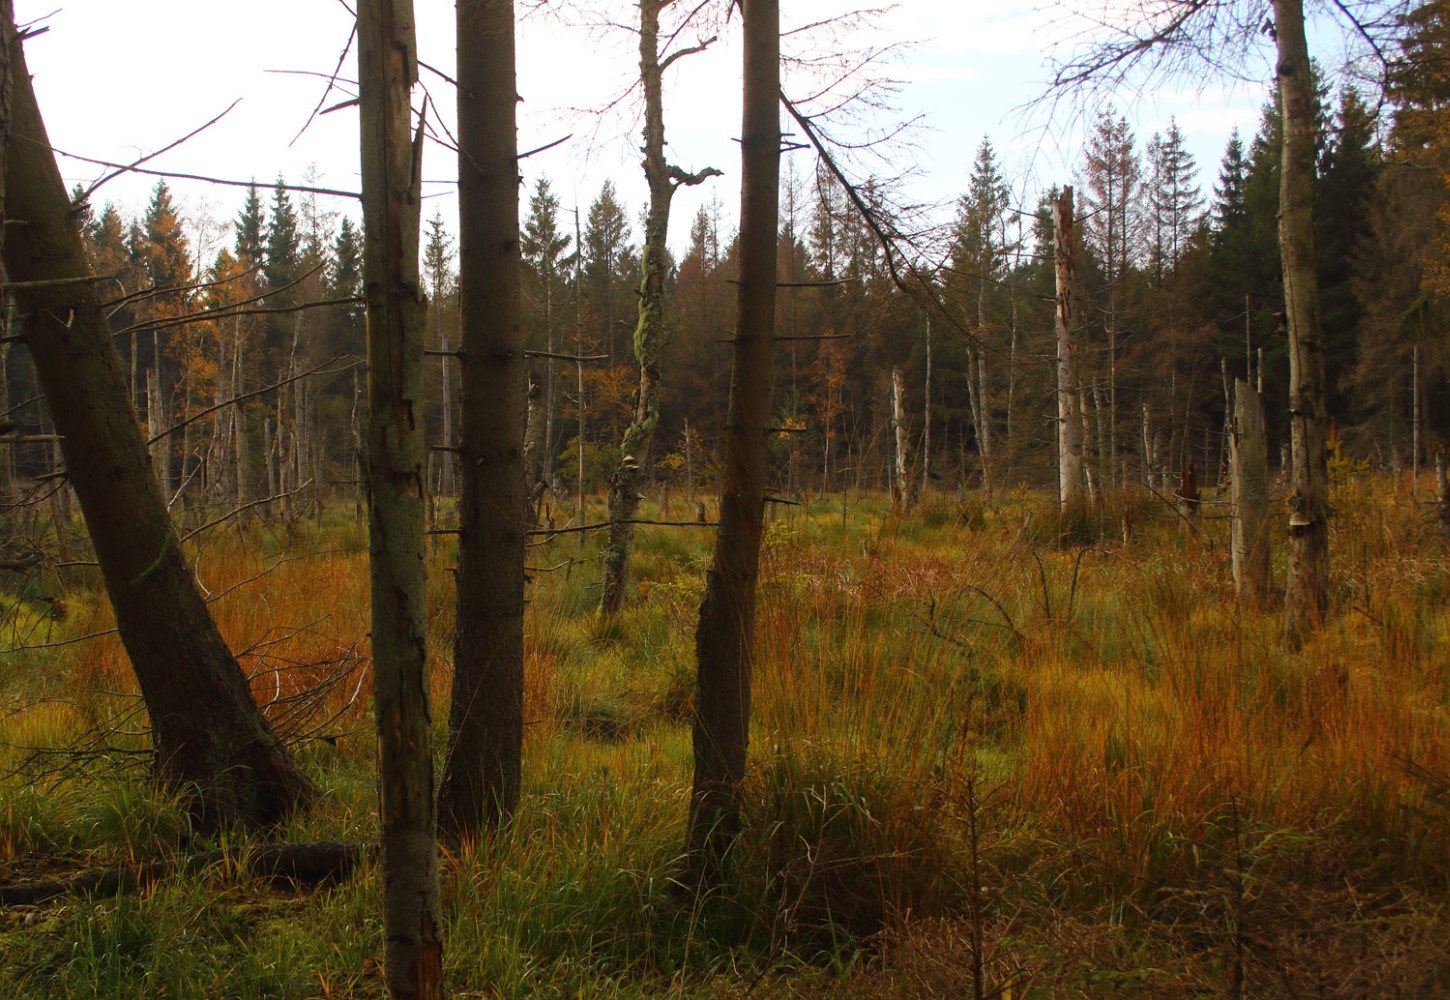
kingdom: Fungi
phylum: Ascomycota
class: Lecanoromycetes
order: Lecanorales
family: Parmeliaceae
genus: Usnea
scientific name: Usnea dasypoga
